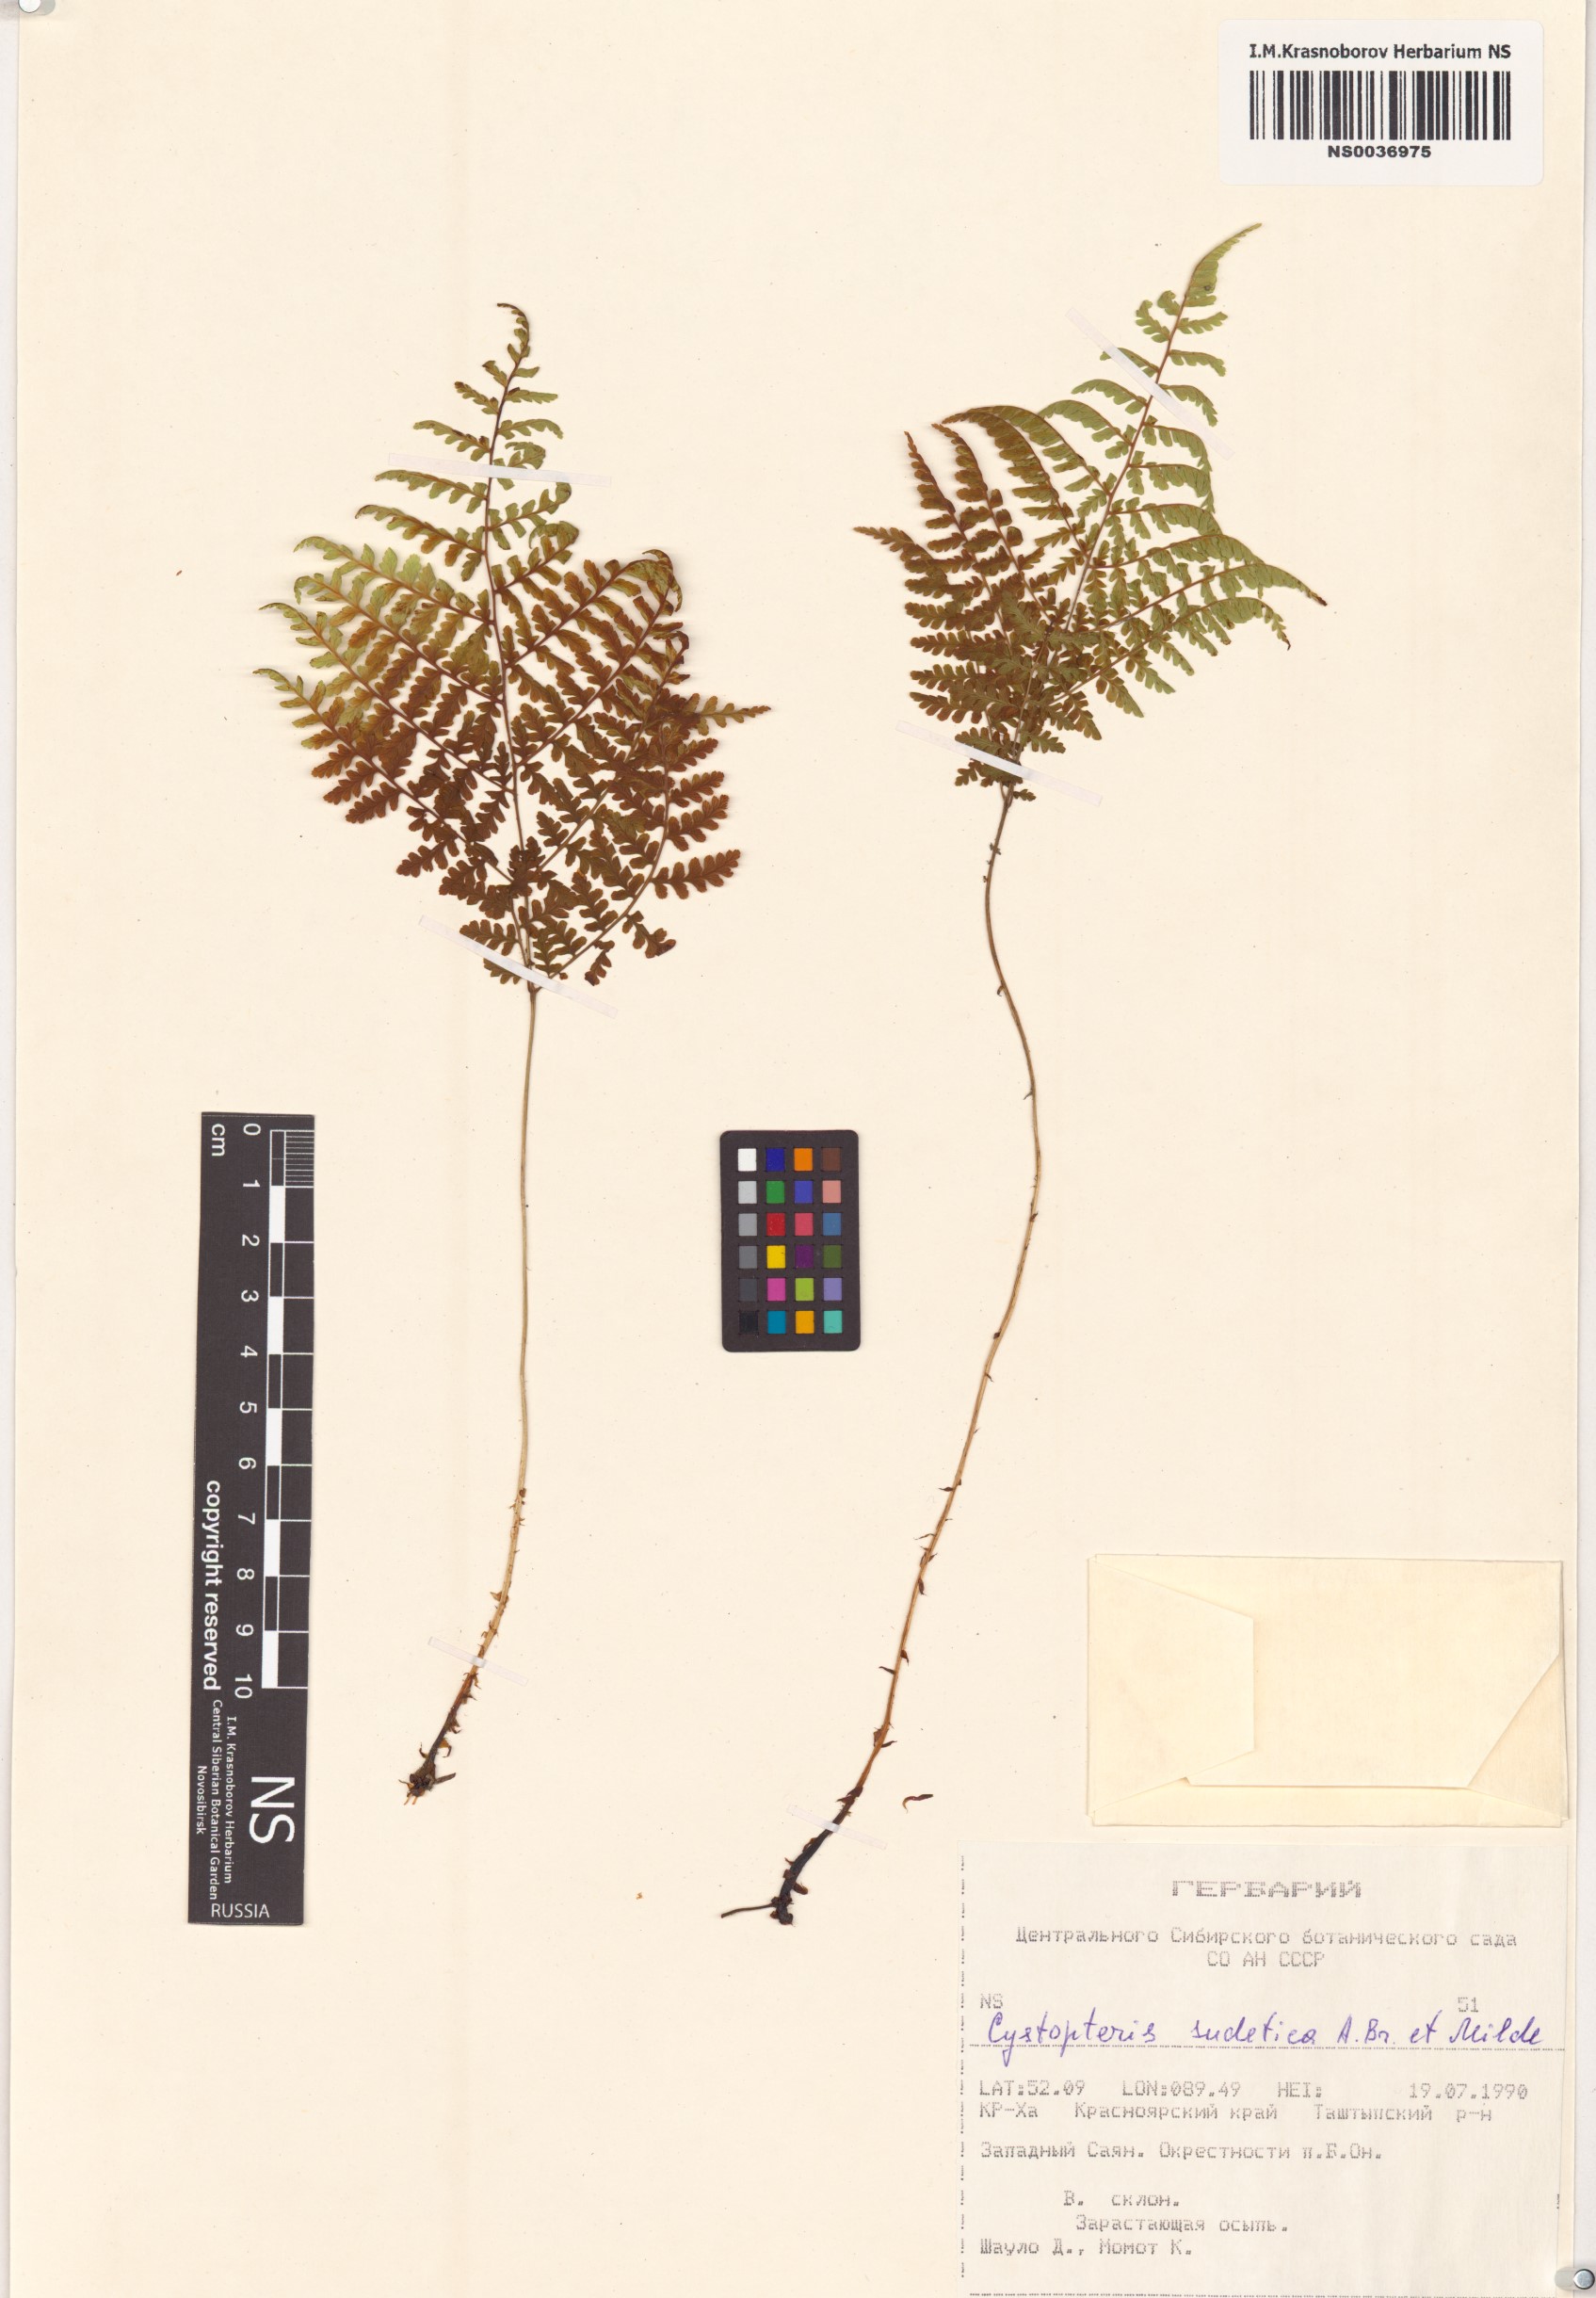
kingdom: Plantae
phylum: Tracheophyta
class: Polypodiopsida
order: Polypodiales
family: Cystopteridaceae
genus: Cystopteris
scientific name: Cystopteris sudetica
